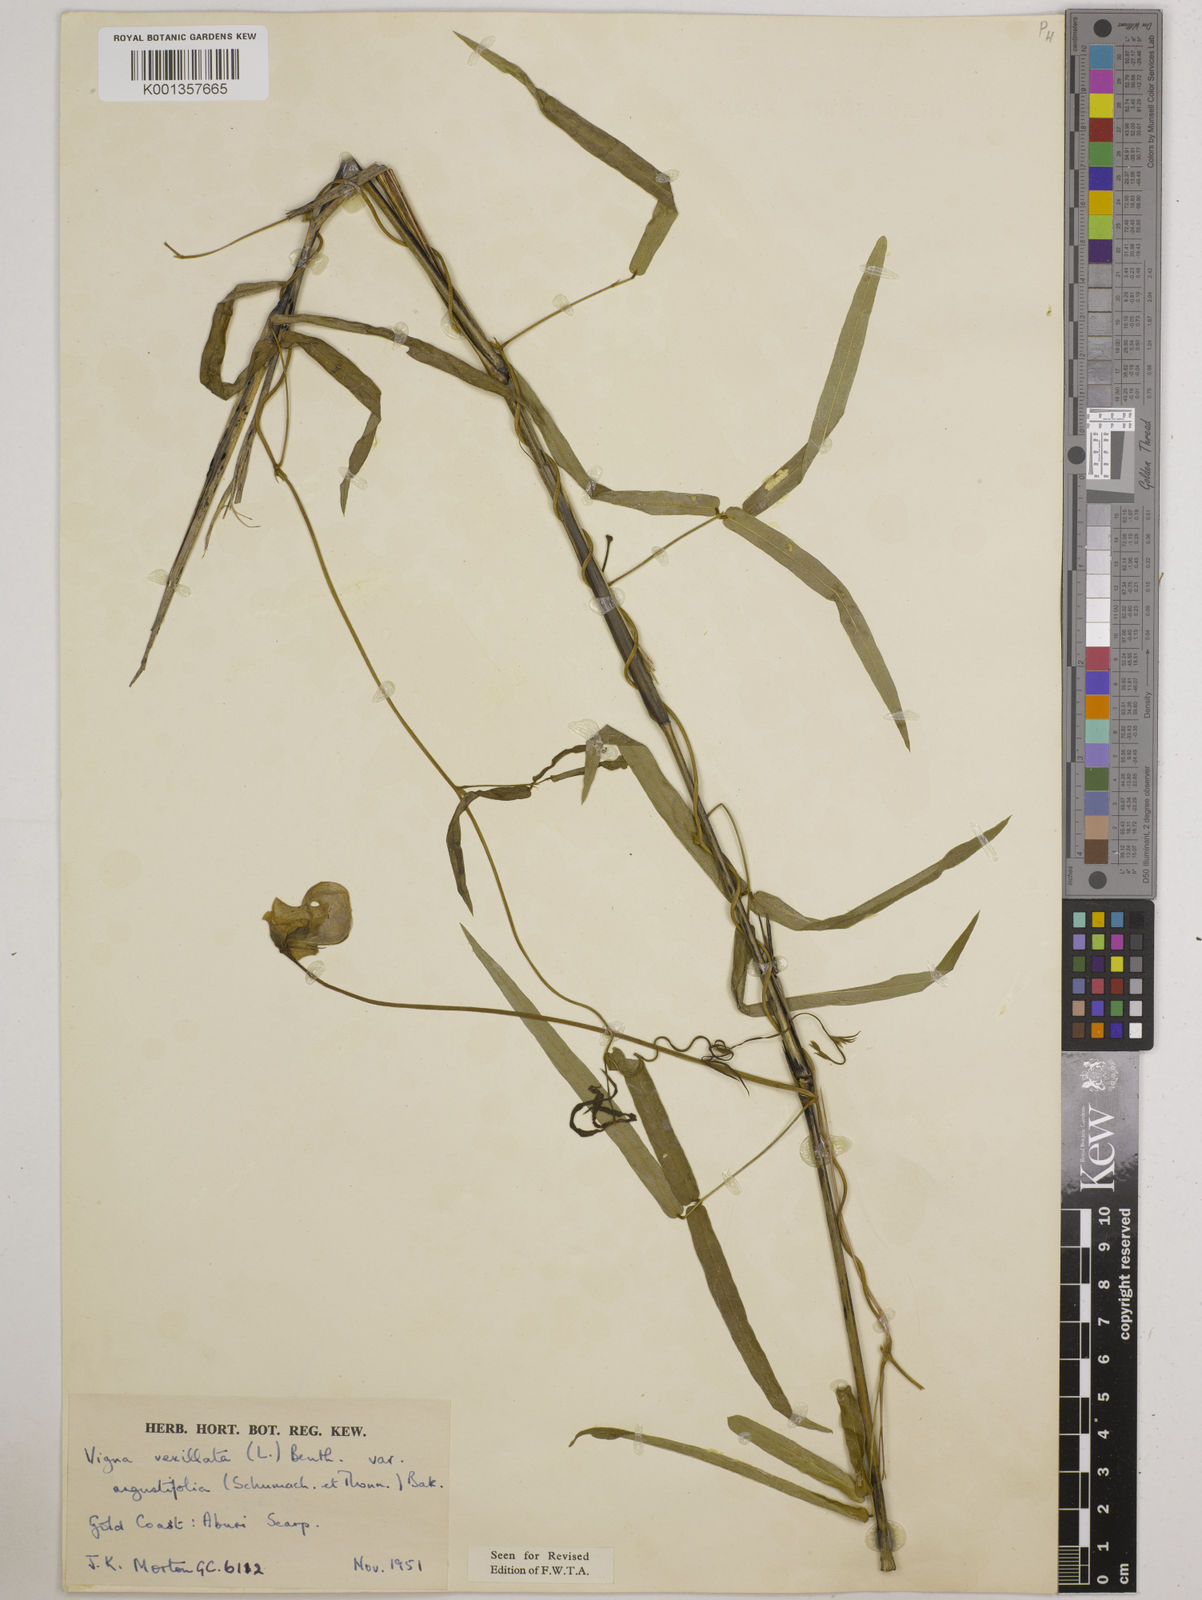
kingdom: Plantae
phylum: Tracheophyta
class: Magnoliopsida
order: Fabales
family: Fabaceae
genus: Vigna
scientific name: Vigna vexillata
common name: Zombi pea
